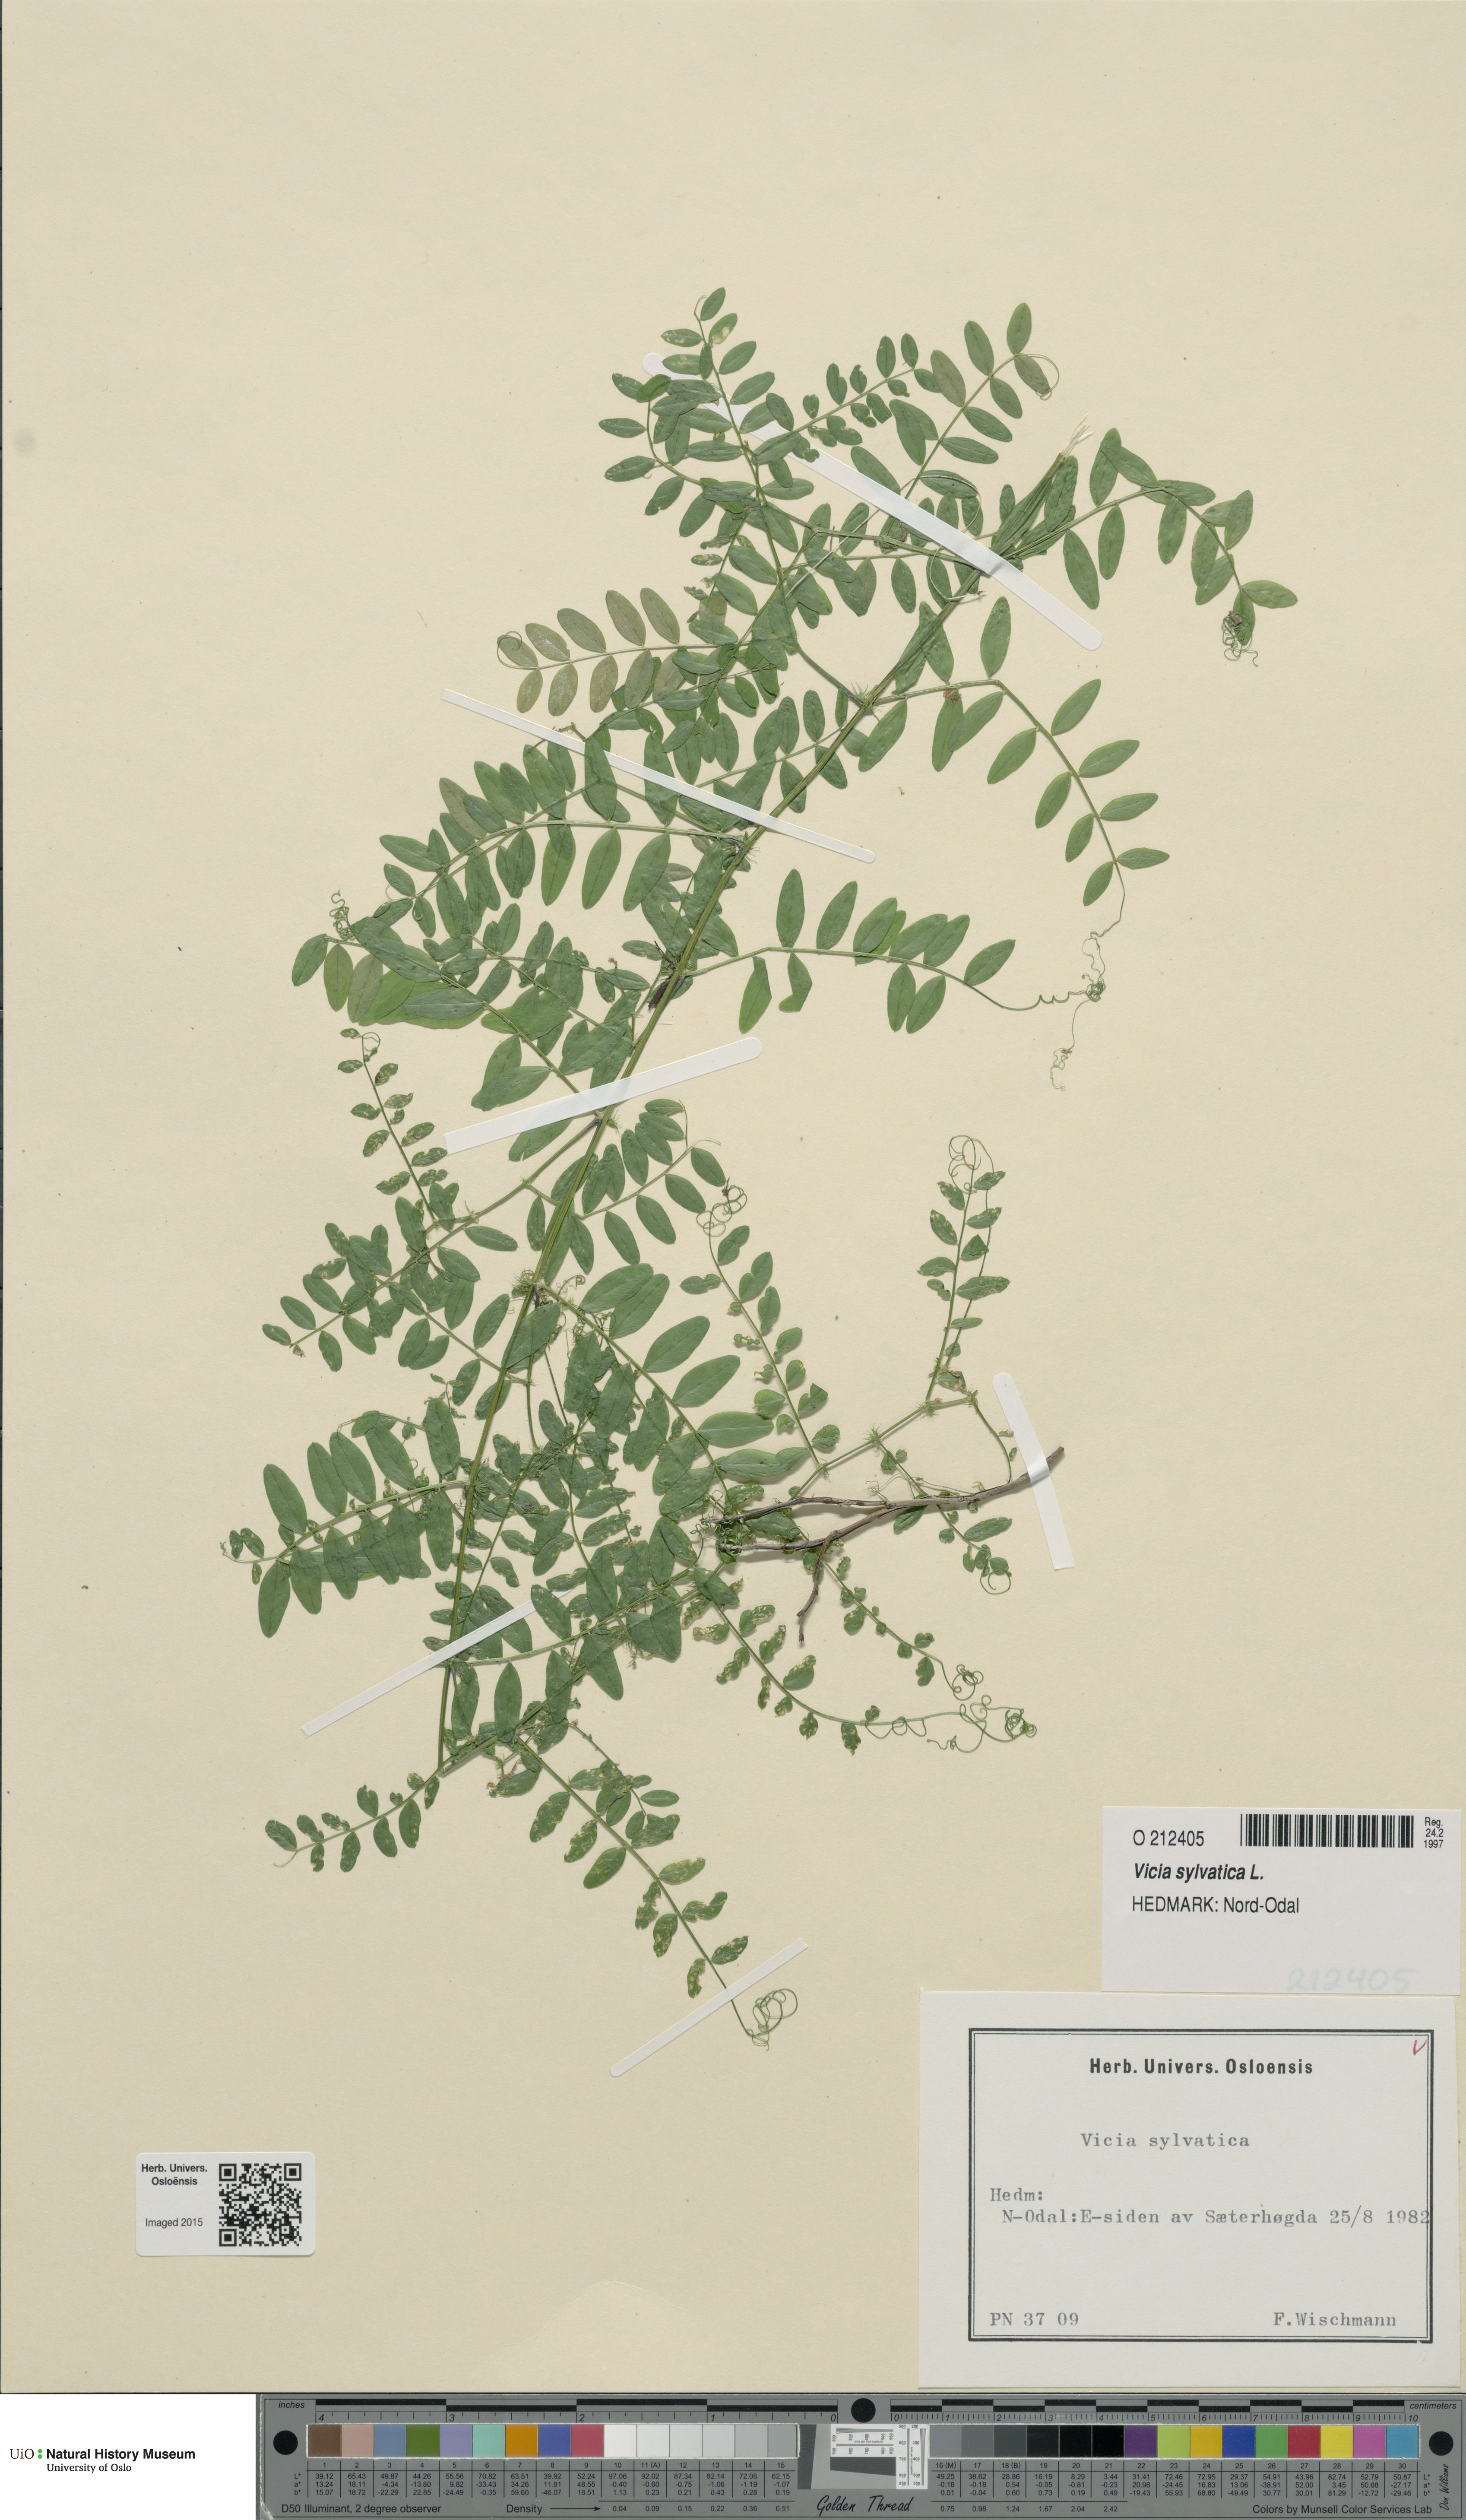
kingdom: Plantae
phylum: Tracheophyta
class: Magnoliopsida
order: Fabales
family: Fabaceae
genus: Vicia
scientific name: Vicia sylvatica
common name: Wood vetch
